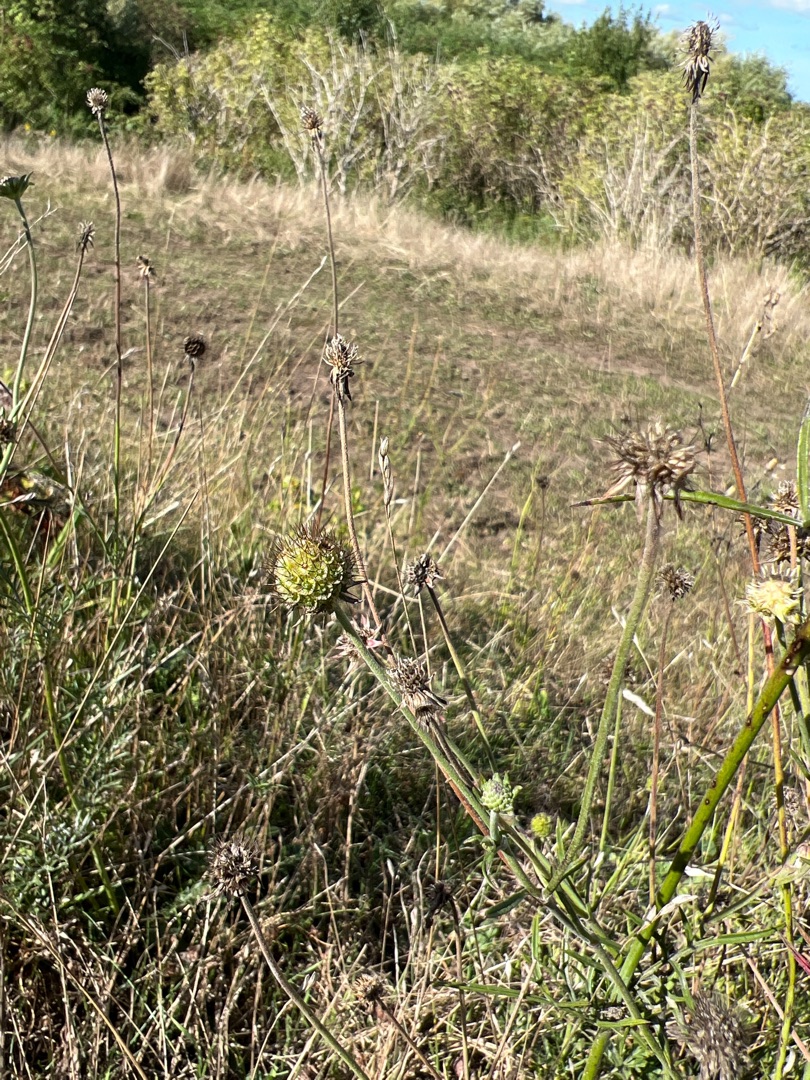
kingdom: Plantae
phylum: Tracheophyta
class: Magnoliopsida
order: Dipsacales
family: Caprifoliaceae
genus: Scabiosa
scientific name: Scabiosa columbaria
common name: Due-skabiose
